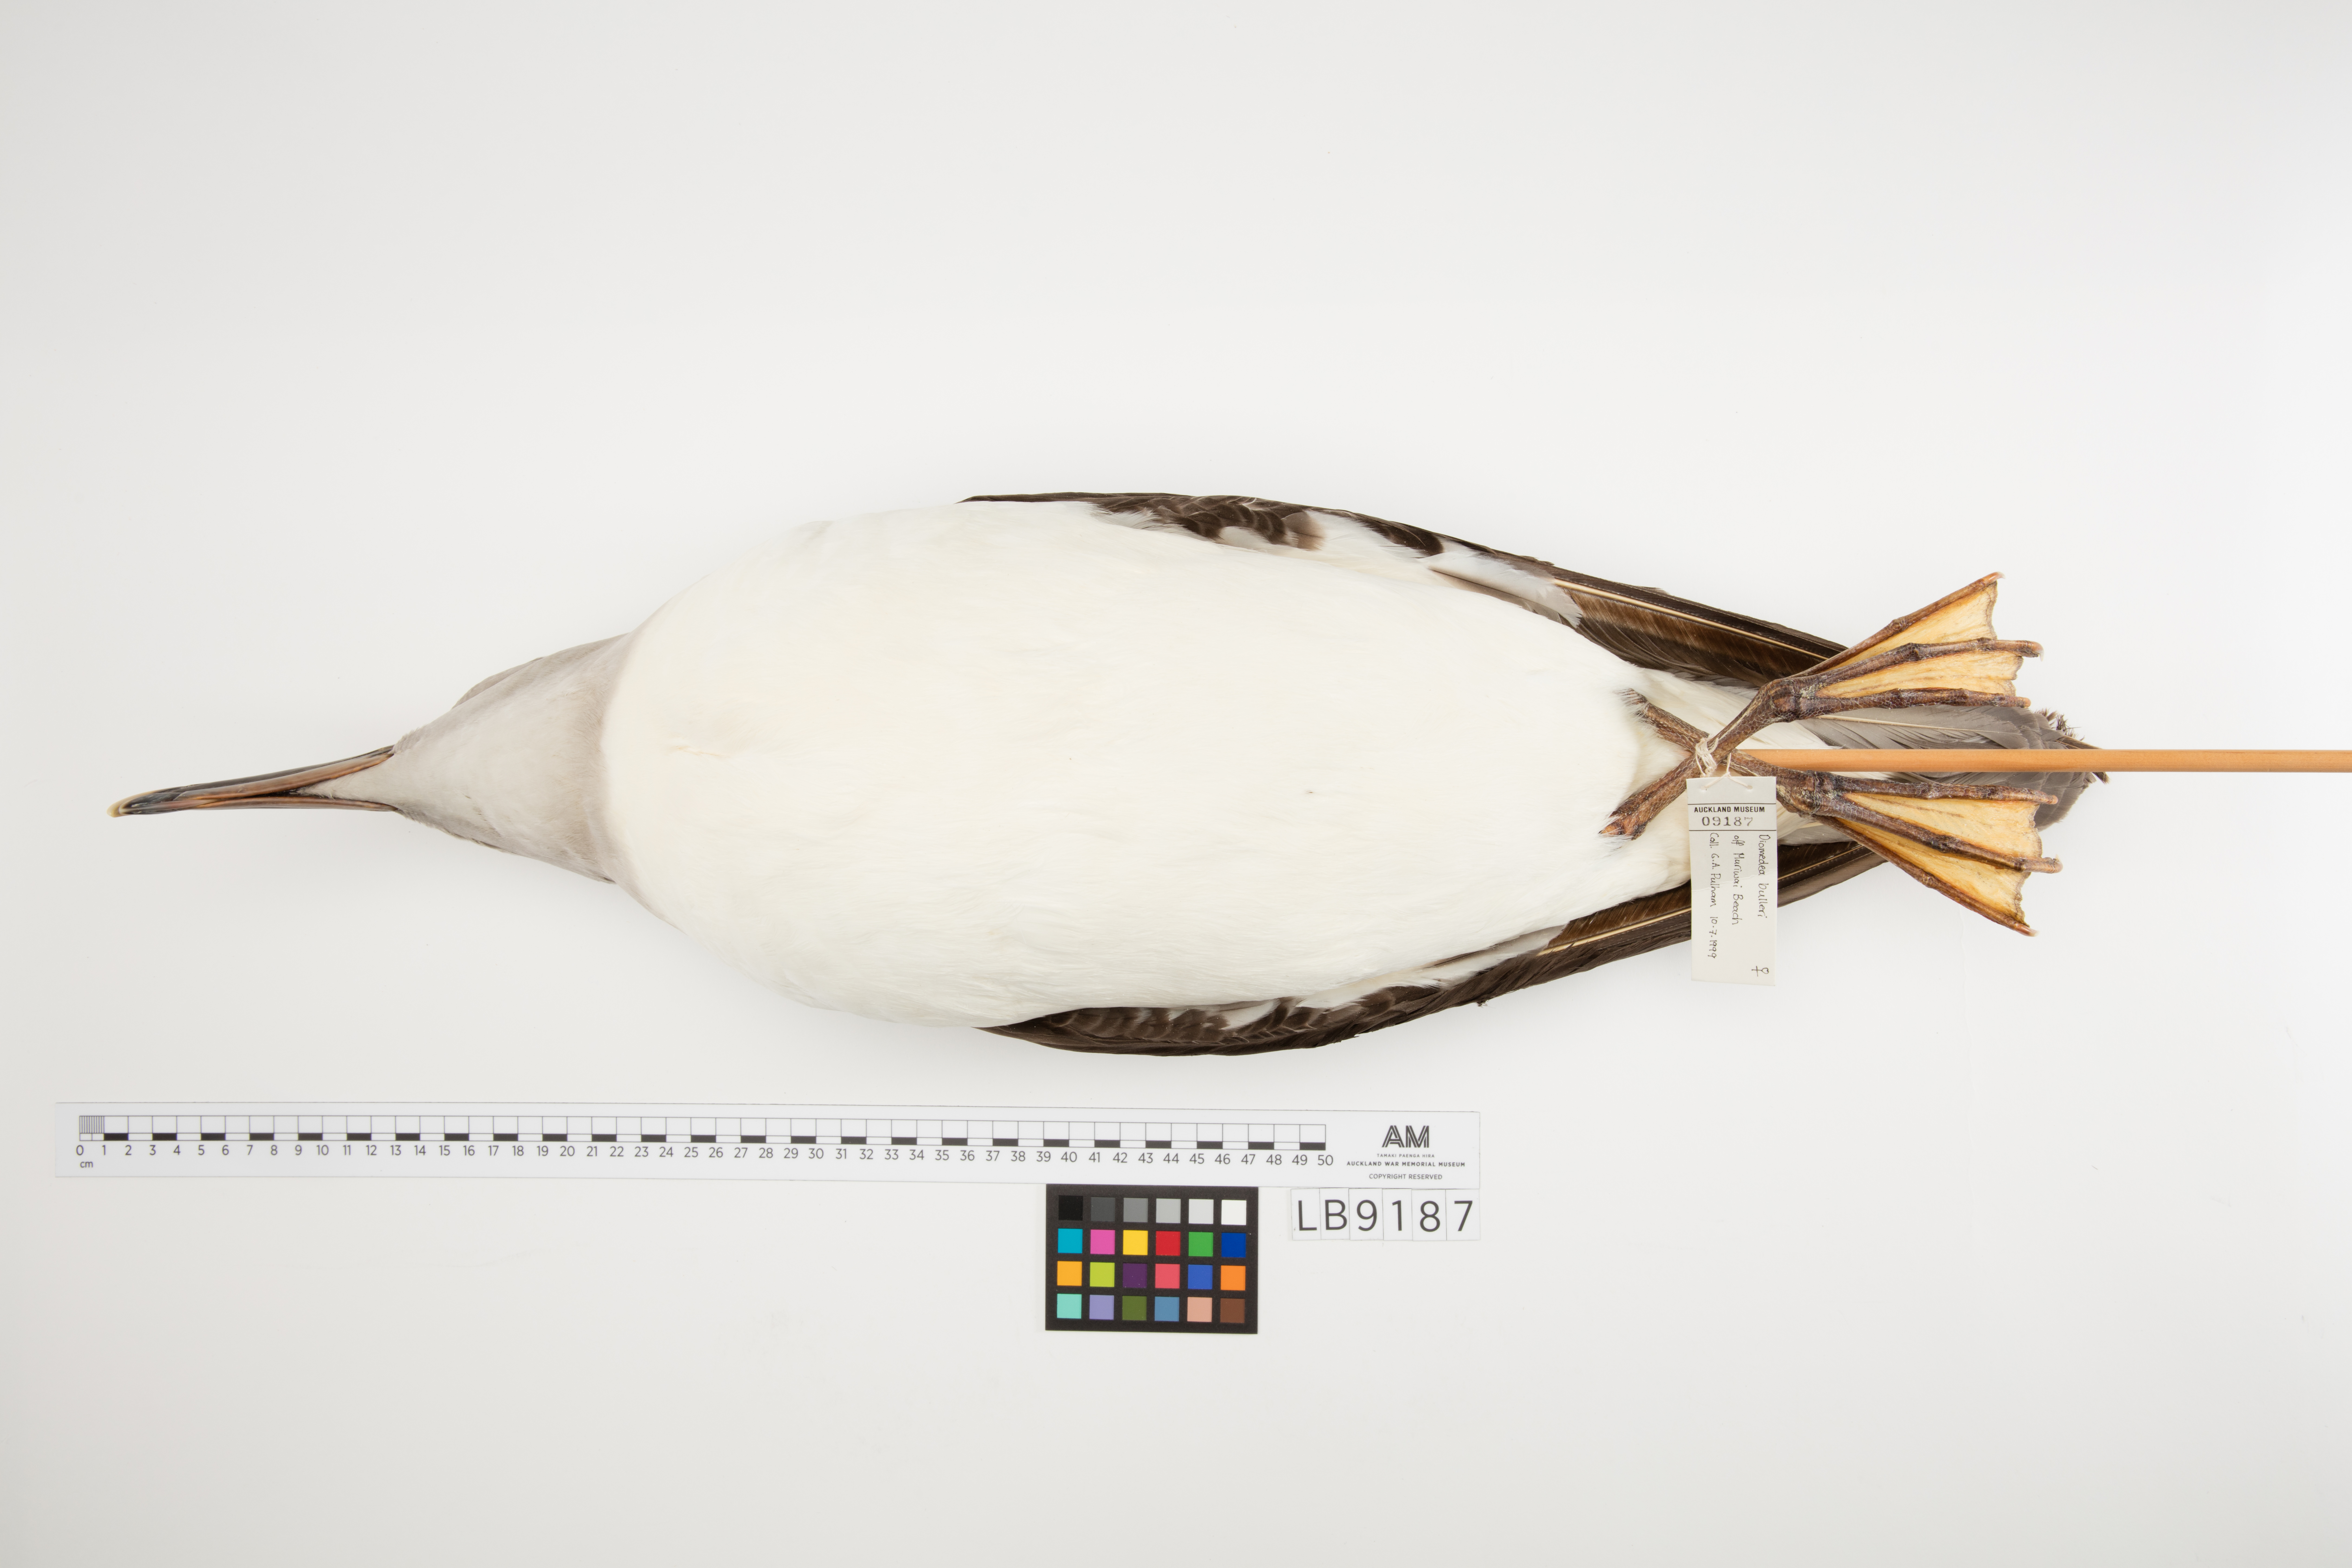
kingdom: Animalia
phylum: Chordata
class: Aves
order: Procellariiformes
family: Diomedeidae
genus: Thalassarche
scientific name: Thalassarche bulleri
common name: Buller's albatross
